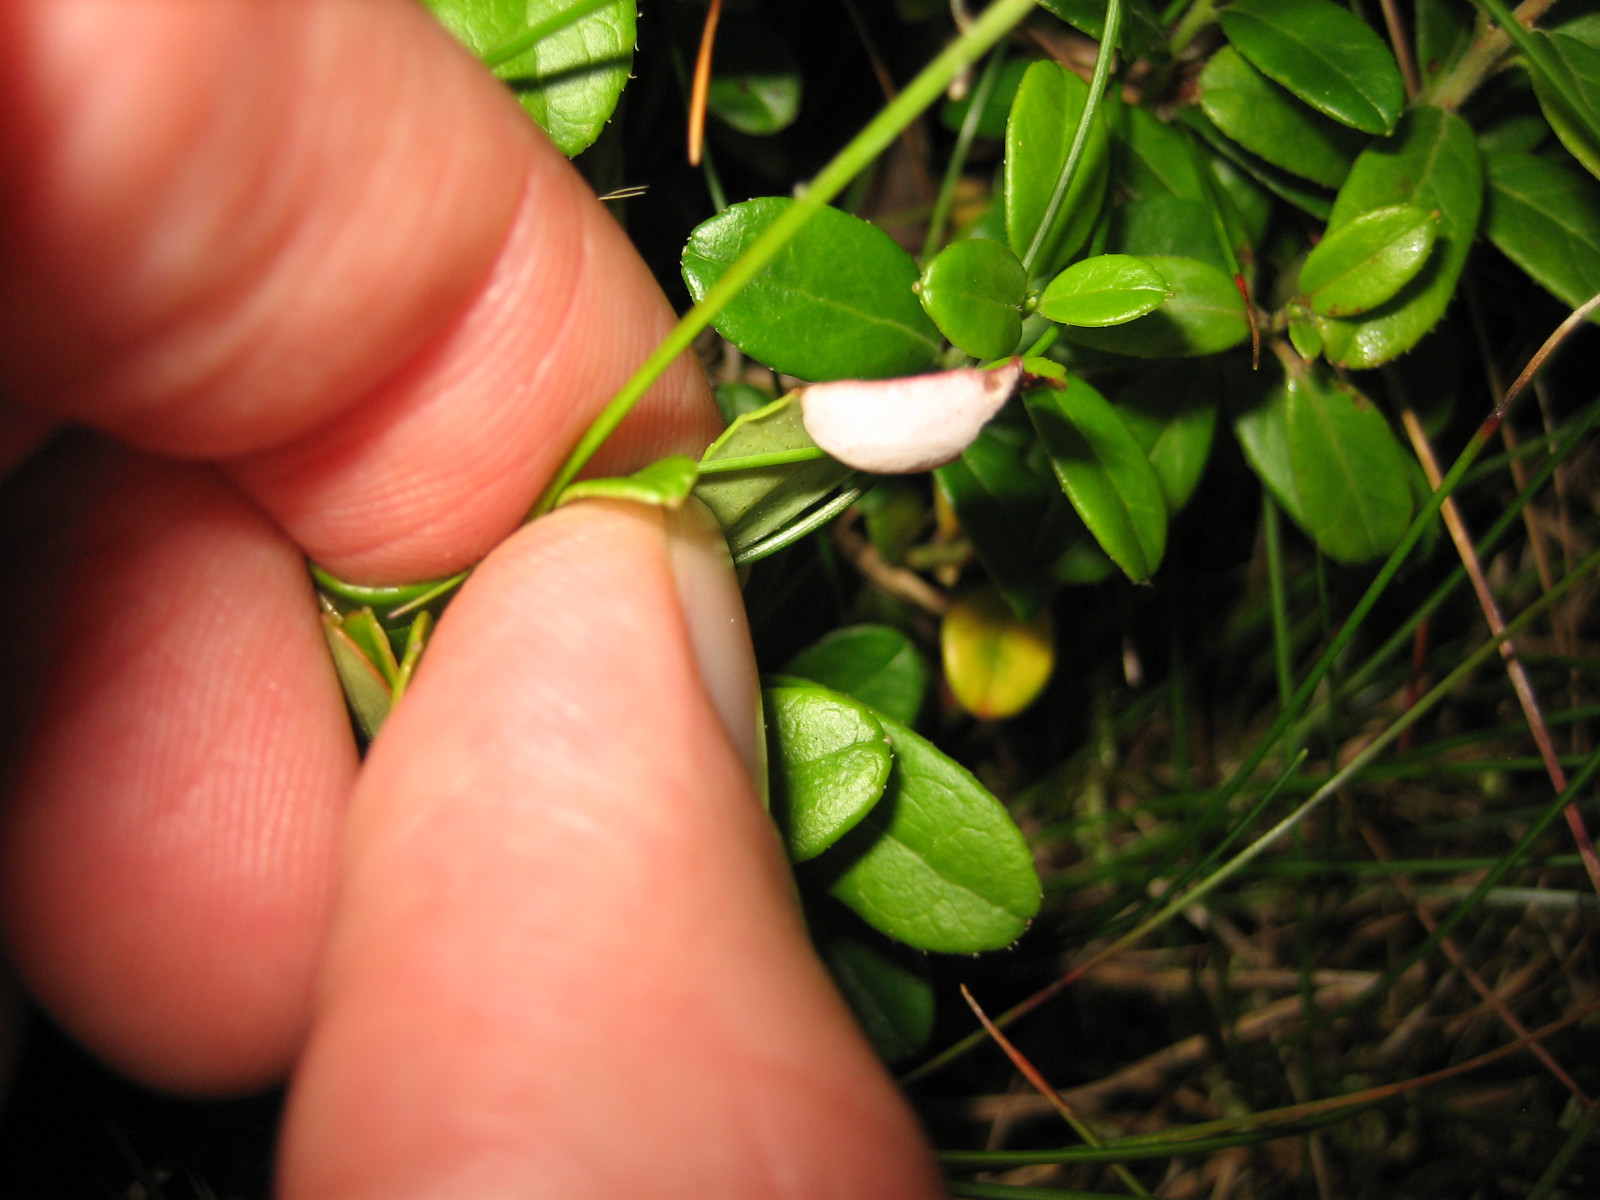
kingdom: Fungi
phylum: Basidiomycota
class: Exobasidiomycetes
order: Exobasidiales
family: Exobasidiaceae
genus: Exobasidium
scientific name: Exobasidium vaccinii
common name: tyttebærblad-bøllesvamp
